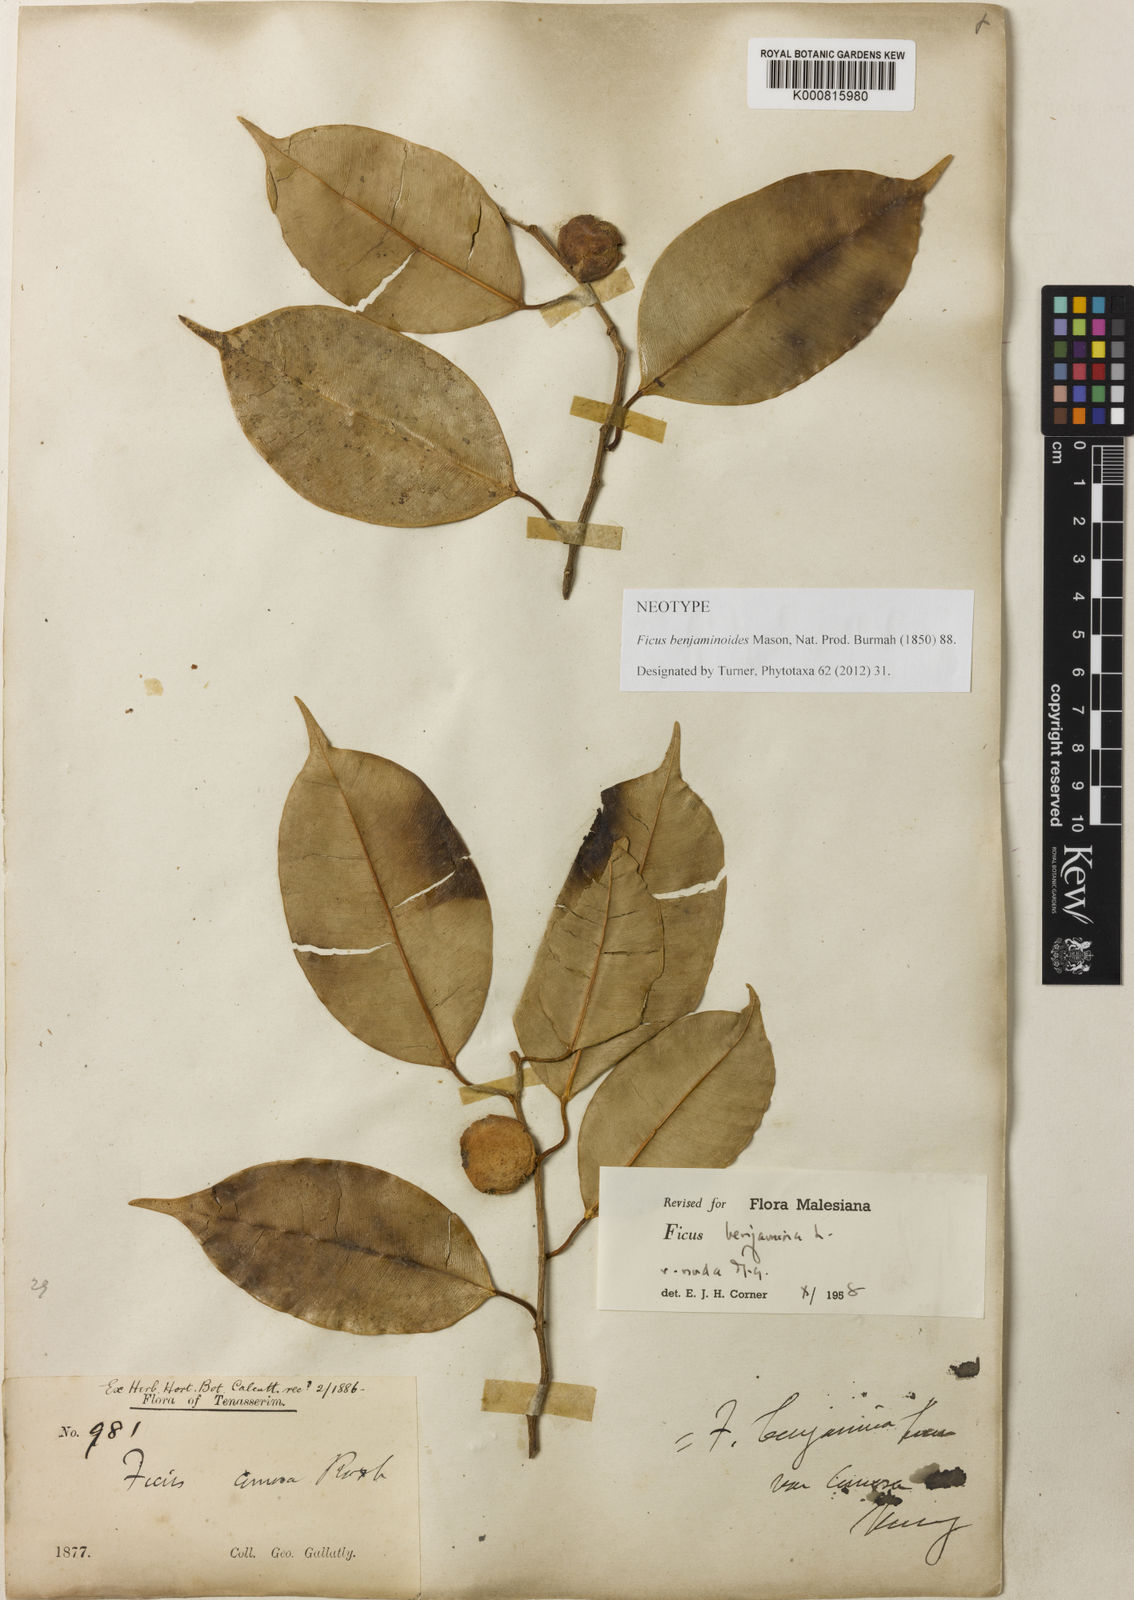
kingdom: Plantae
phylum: Tracheophyta
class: Magnoliopsida
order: Rosales
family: Moraceae
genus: Ficus
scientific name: Ficus
